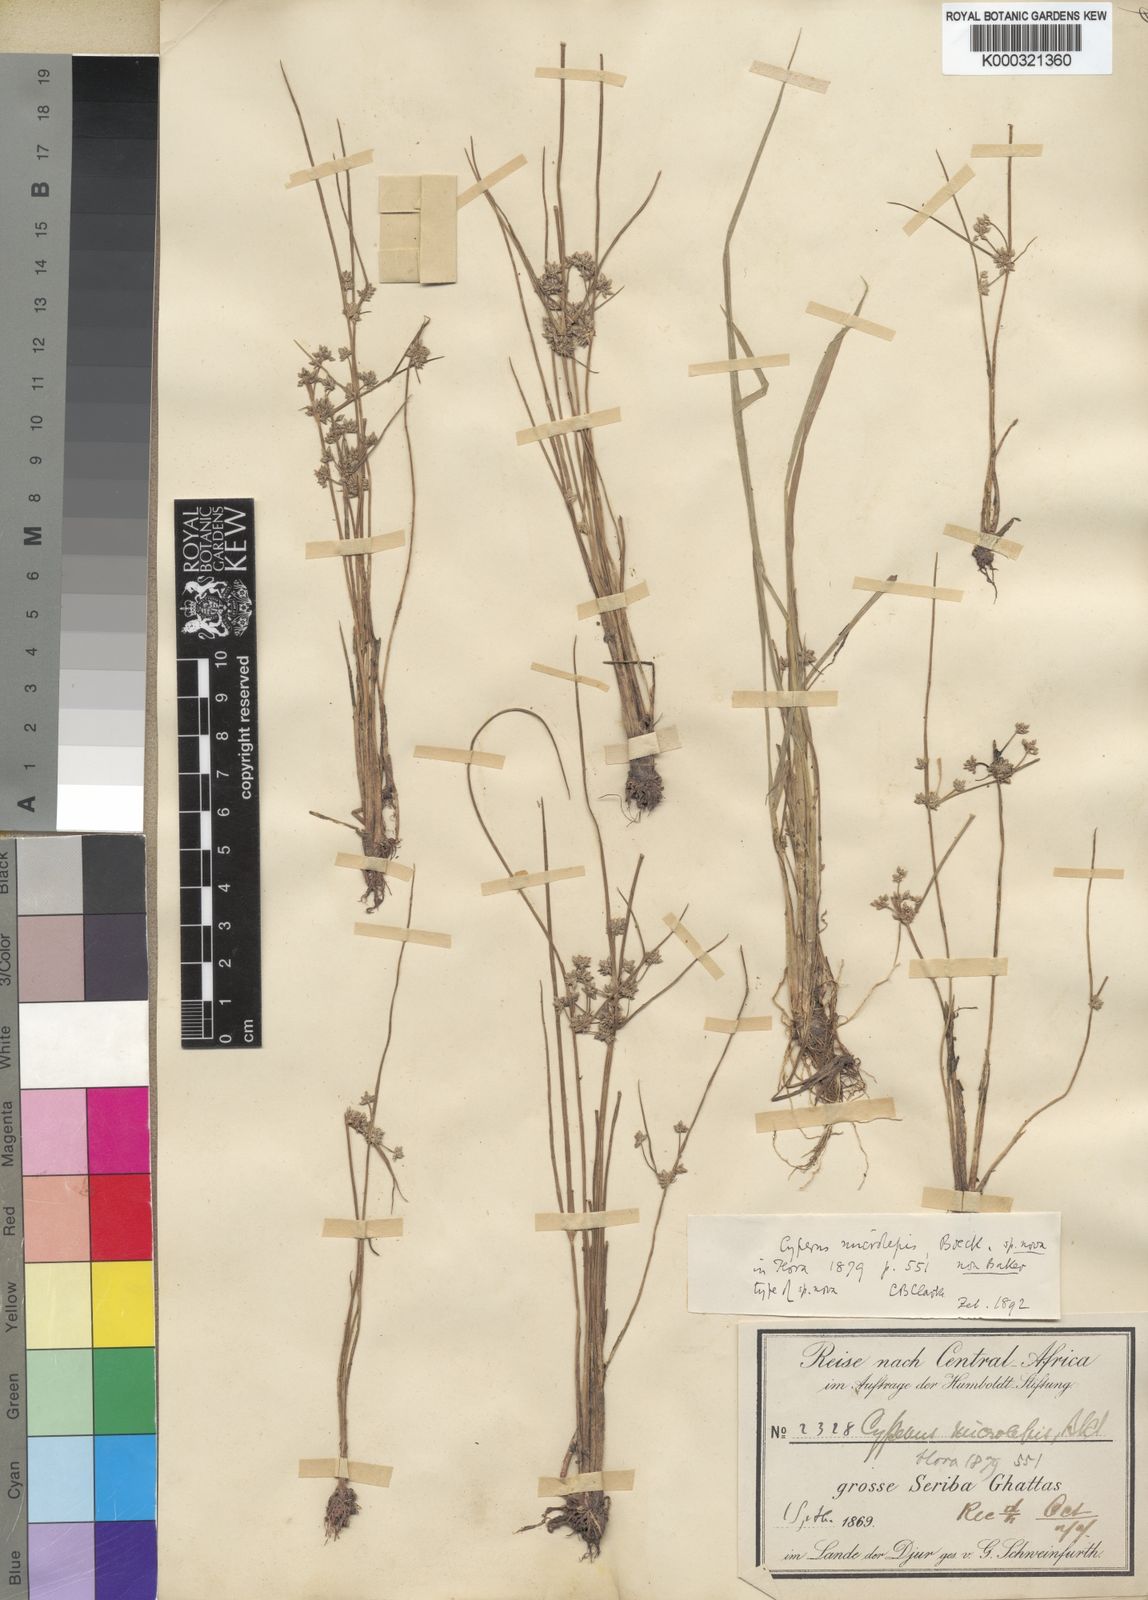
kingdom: Plantae
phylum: Tracheophyta
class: Liliopsida
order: Poales
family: Cyperaceae
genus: Cyperus
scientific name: Cyperus
